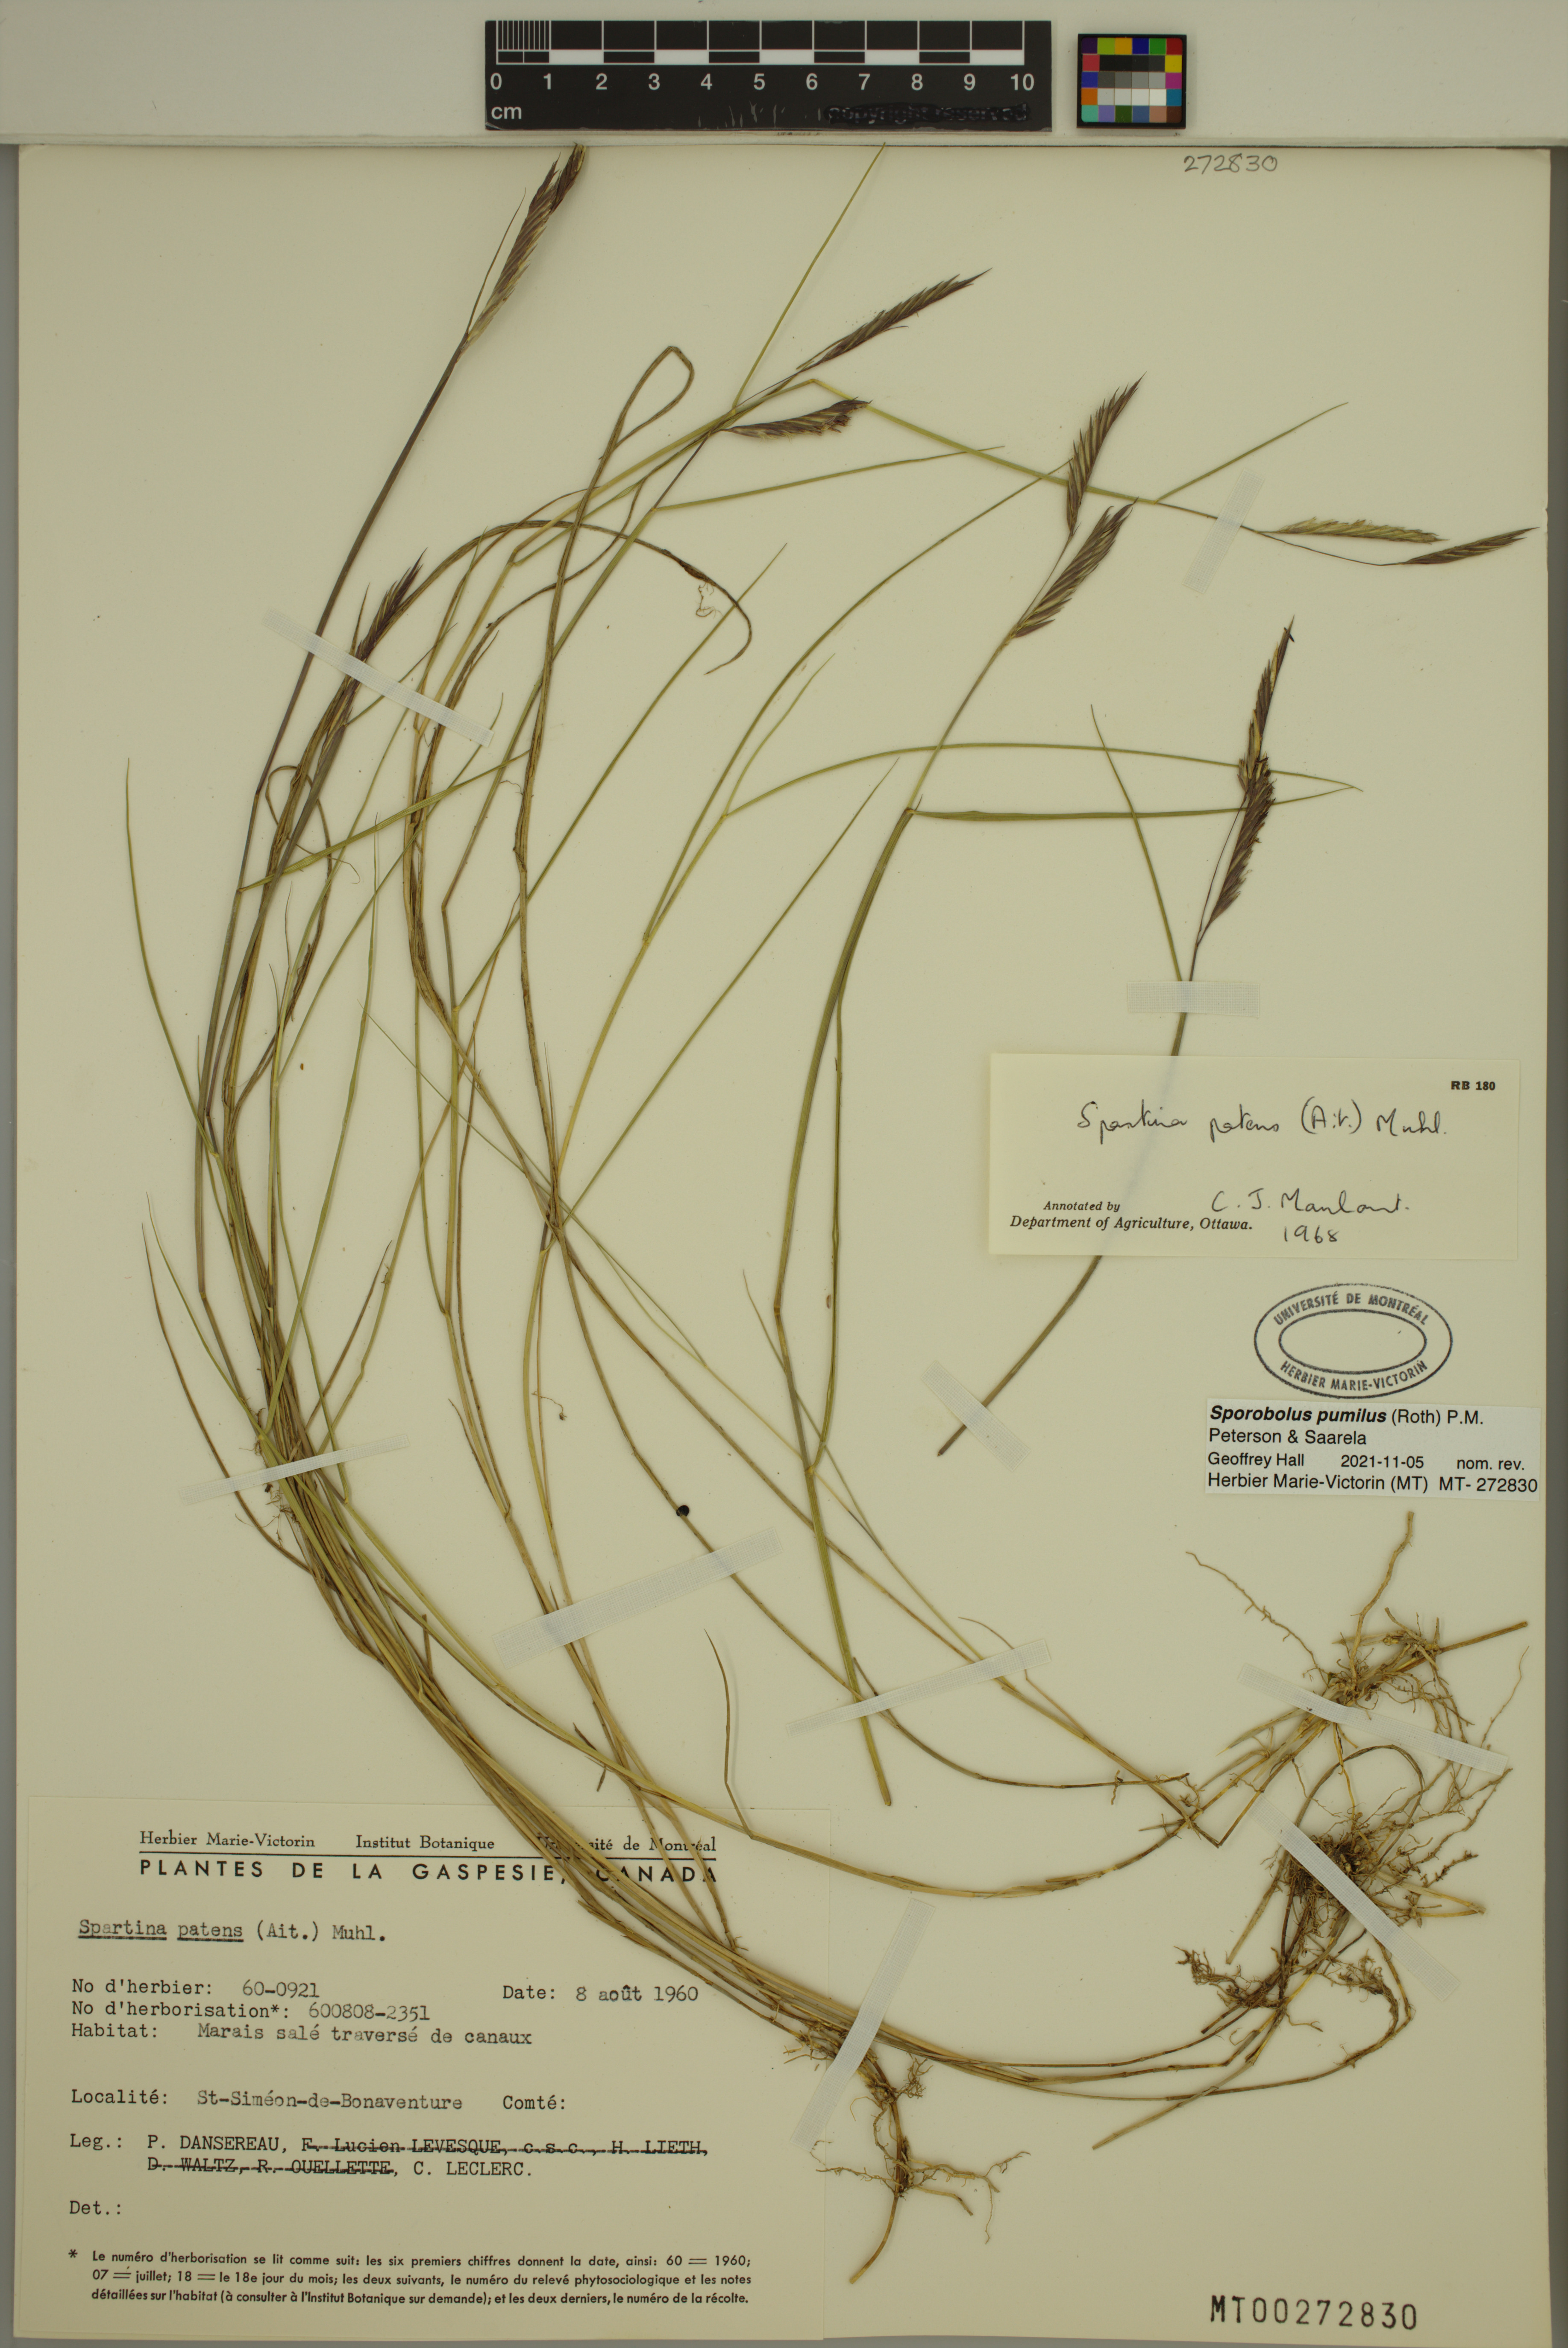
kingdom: Plantae
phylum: Tracheophyta
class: Liliopsida
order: Poales
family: Poaceae
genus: Sporobolus
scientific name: Sporobolus pumilus
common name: Highwater grass
